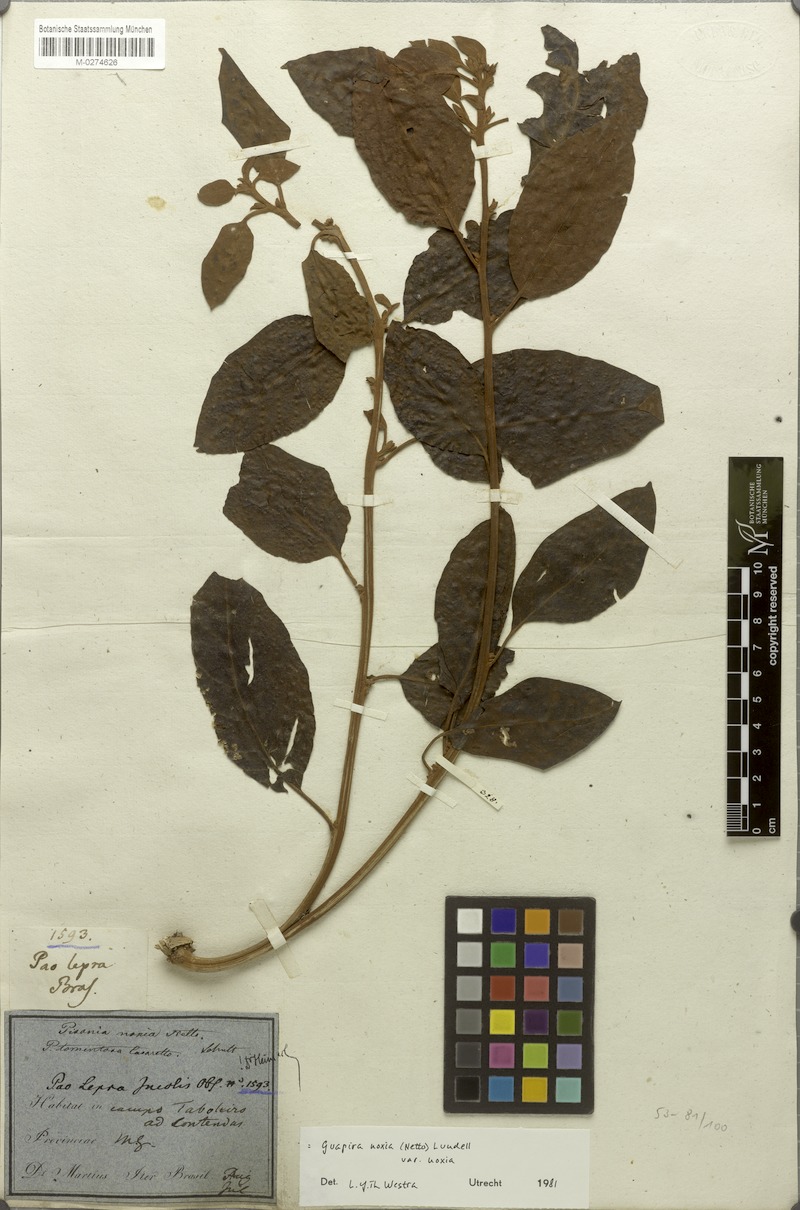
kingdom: Plantae
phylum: Tracheophyta
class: Magnoliopsida
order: Caryophyllales
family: Nyctaginaceae
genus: Guapira
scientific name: Guapira noxia
